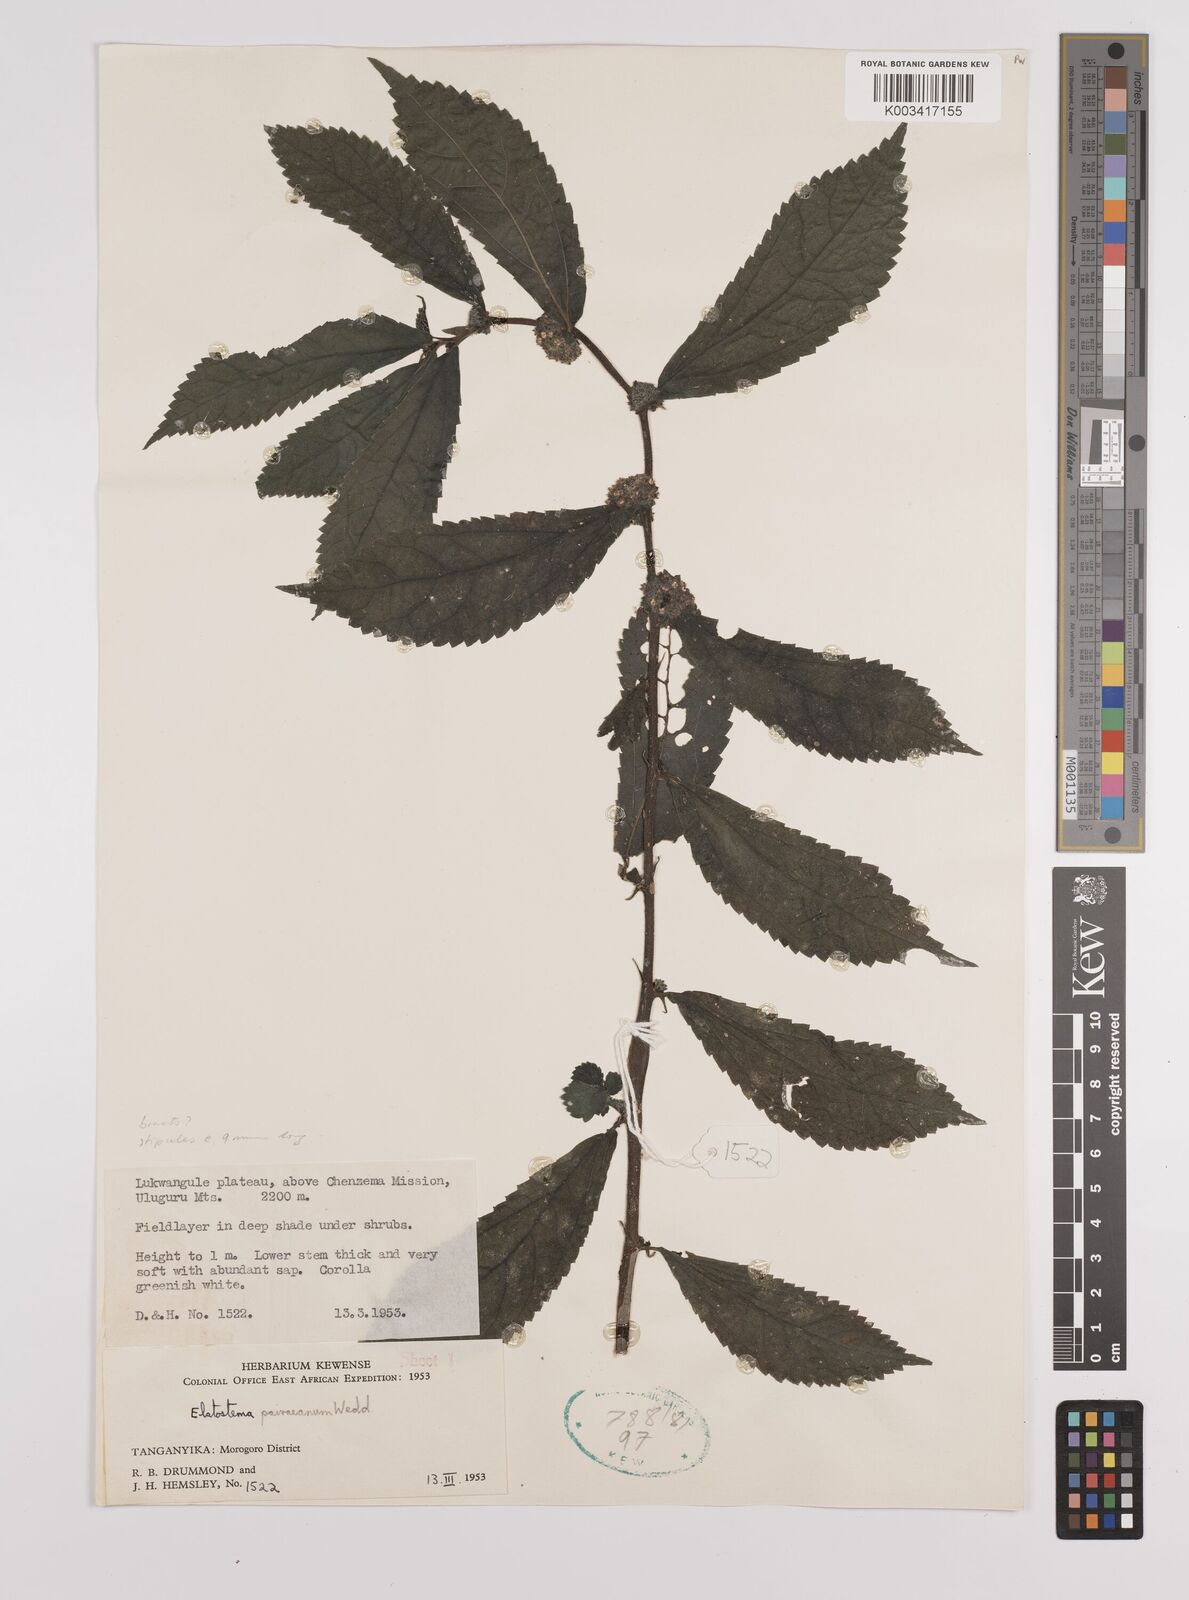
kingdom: Plantae
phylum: Tracheophyta
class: Magnoliopsida
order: Rosales
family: Urticaceae
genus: Elatostema
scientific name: Elatostema paivaeanum
